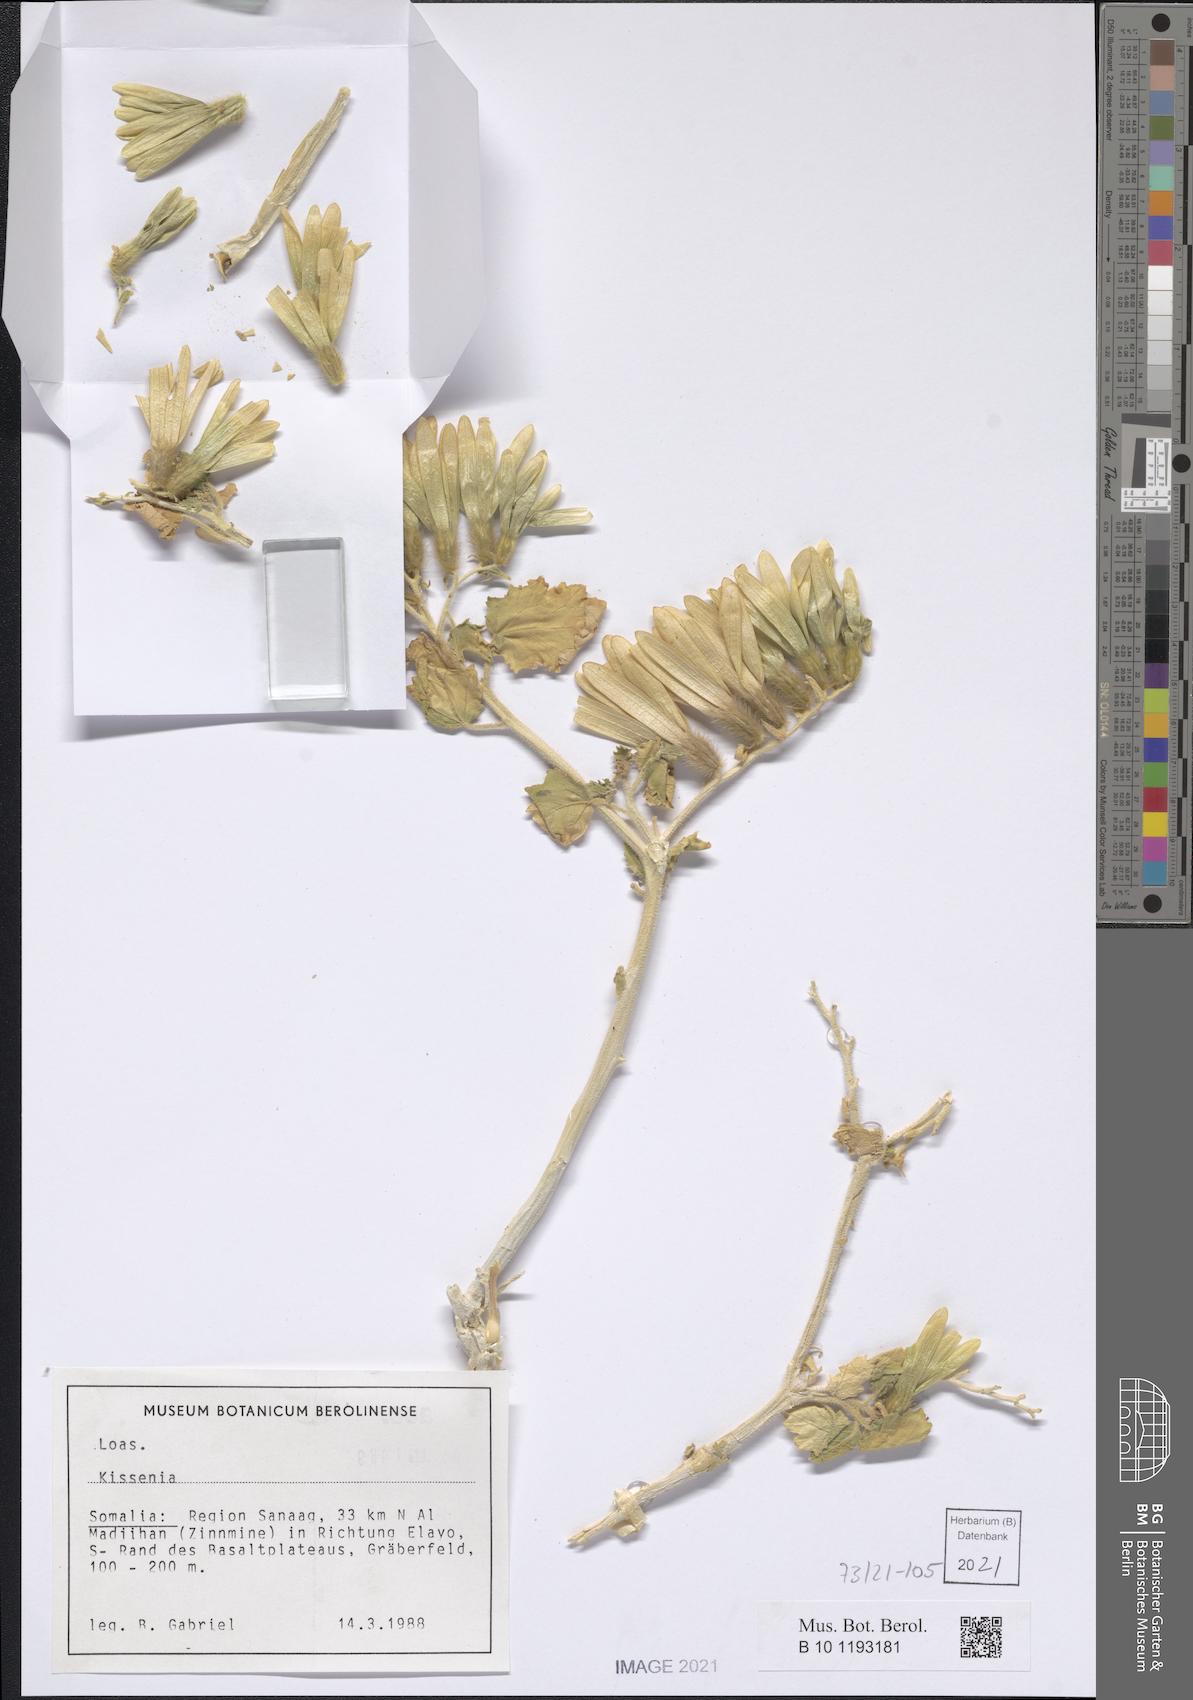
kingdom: Plantae
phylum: Tracheophyta
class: Magnoliopsida
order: Cornales
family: Loasaceae
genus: Kissenia
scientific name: Kissenia
